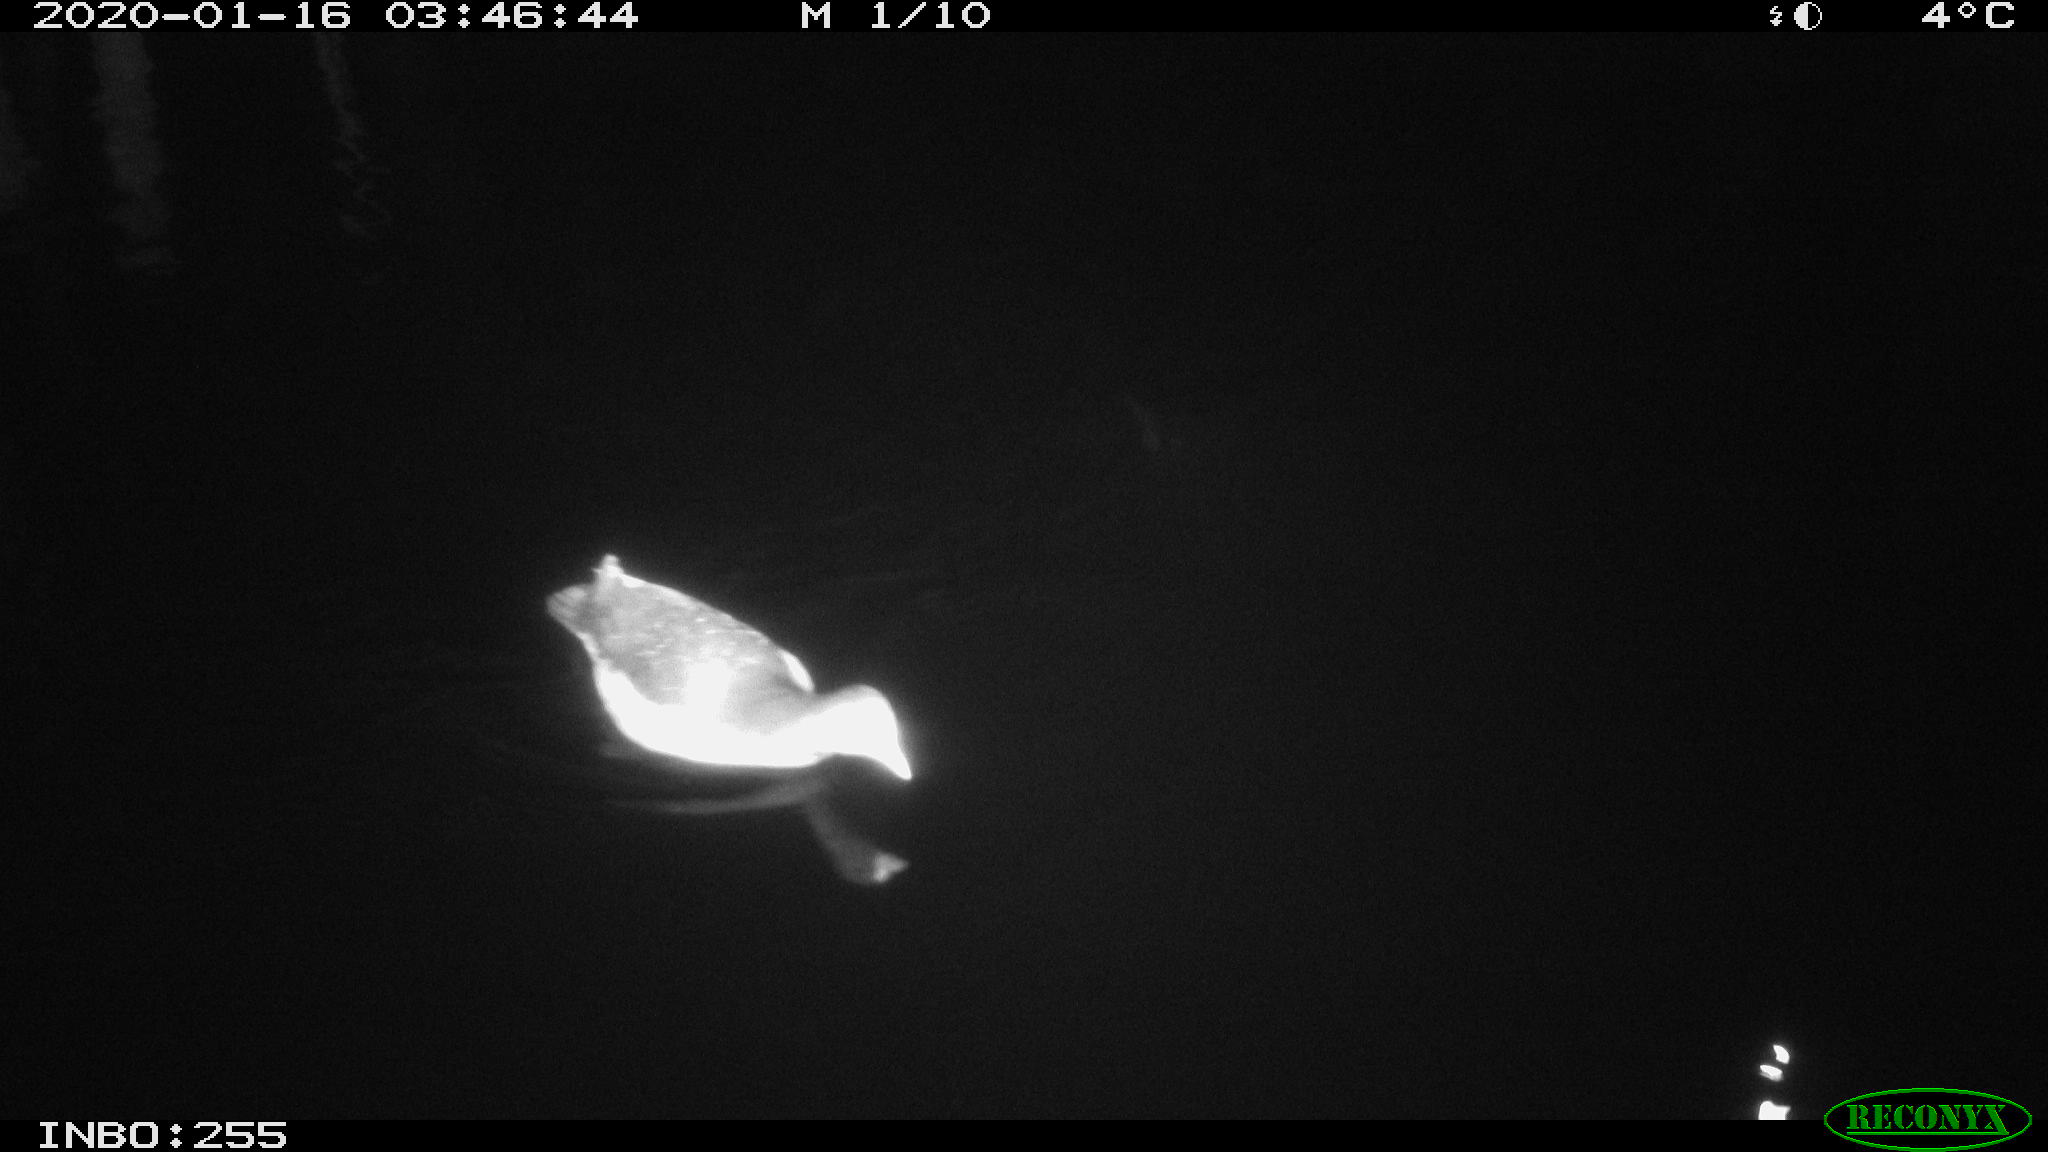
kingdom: Animalia
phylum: Chordata
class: Aves
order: Gruiformes
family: Rallidae
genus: Gallinula
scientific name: Gallinula chloropus
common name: Common moorhen
